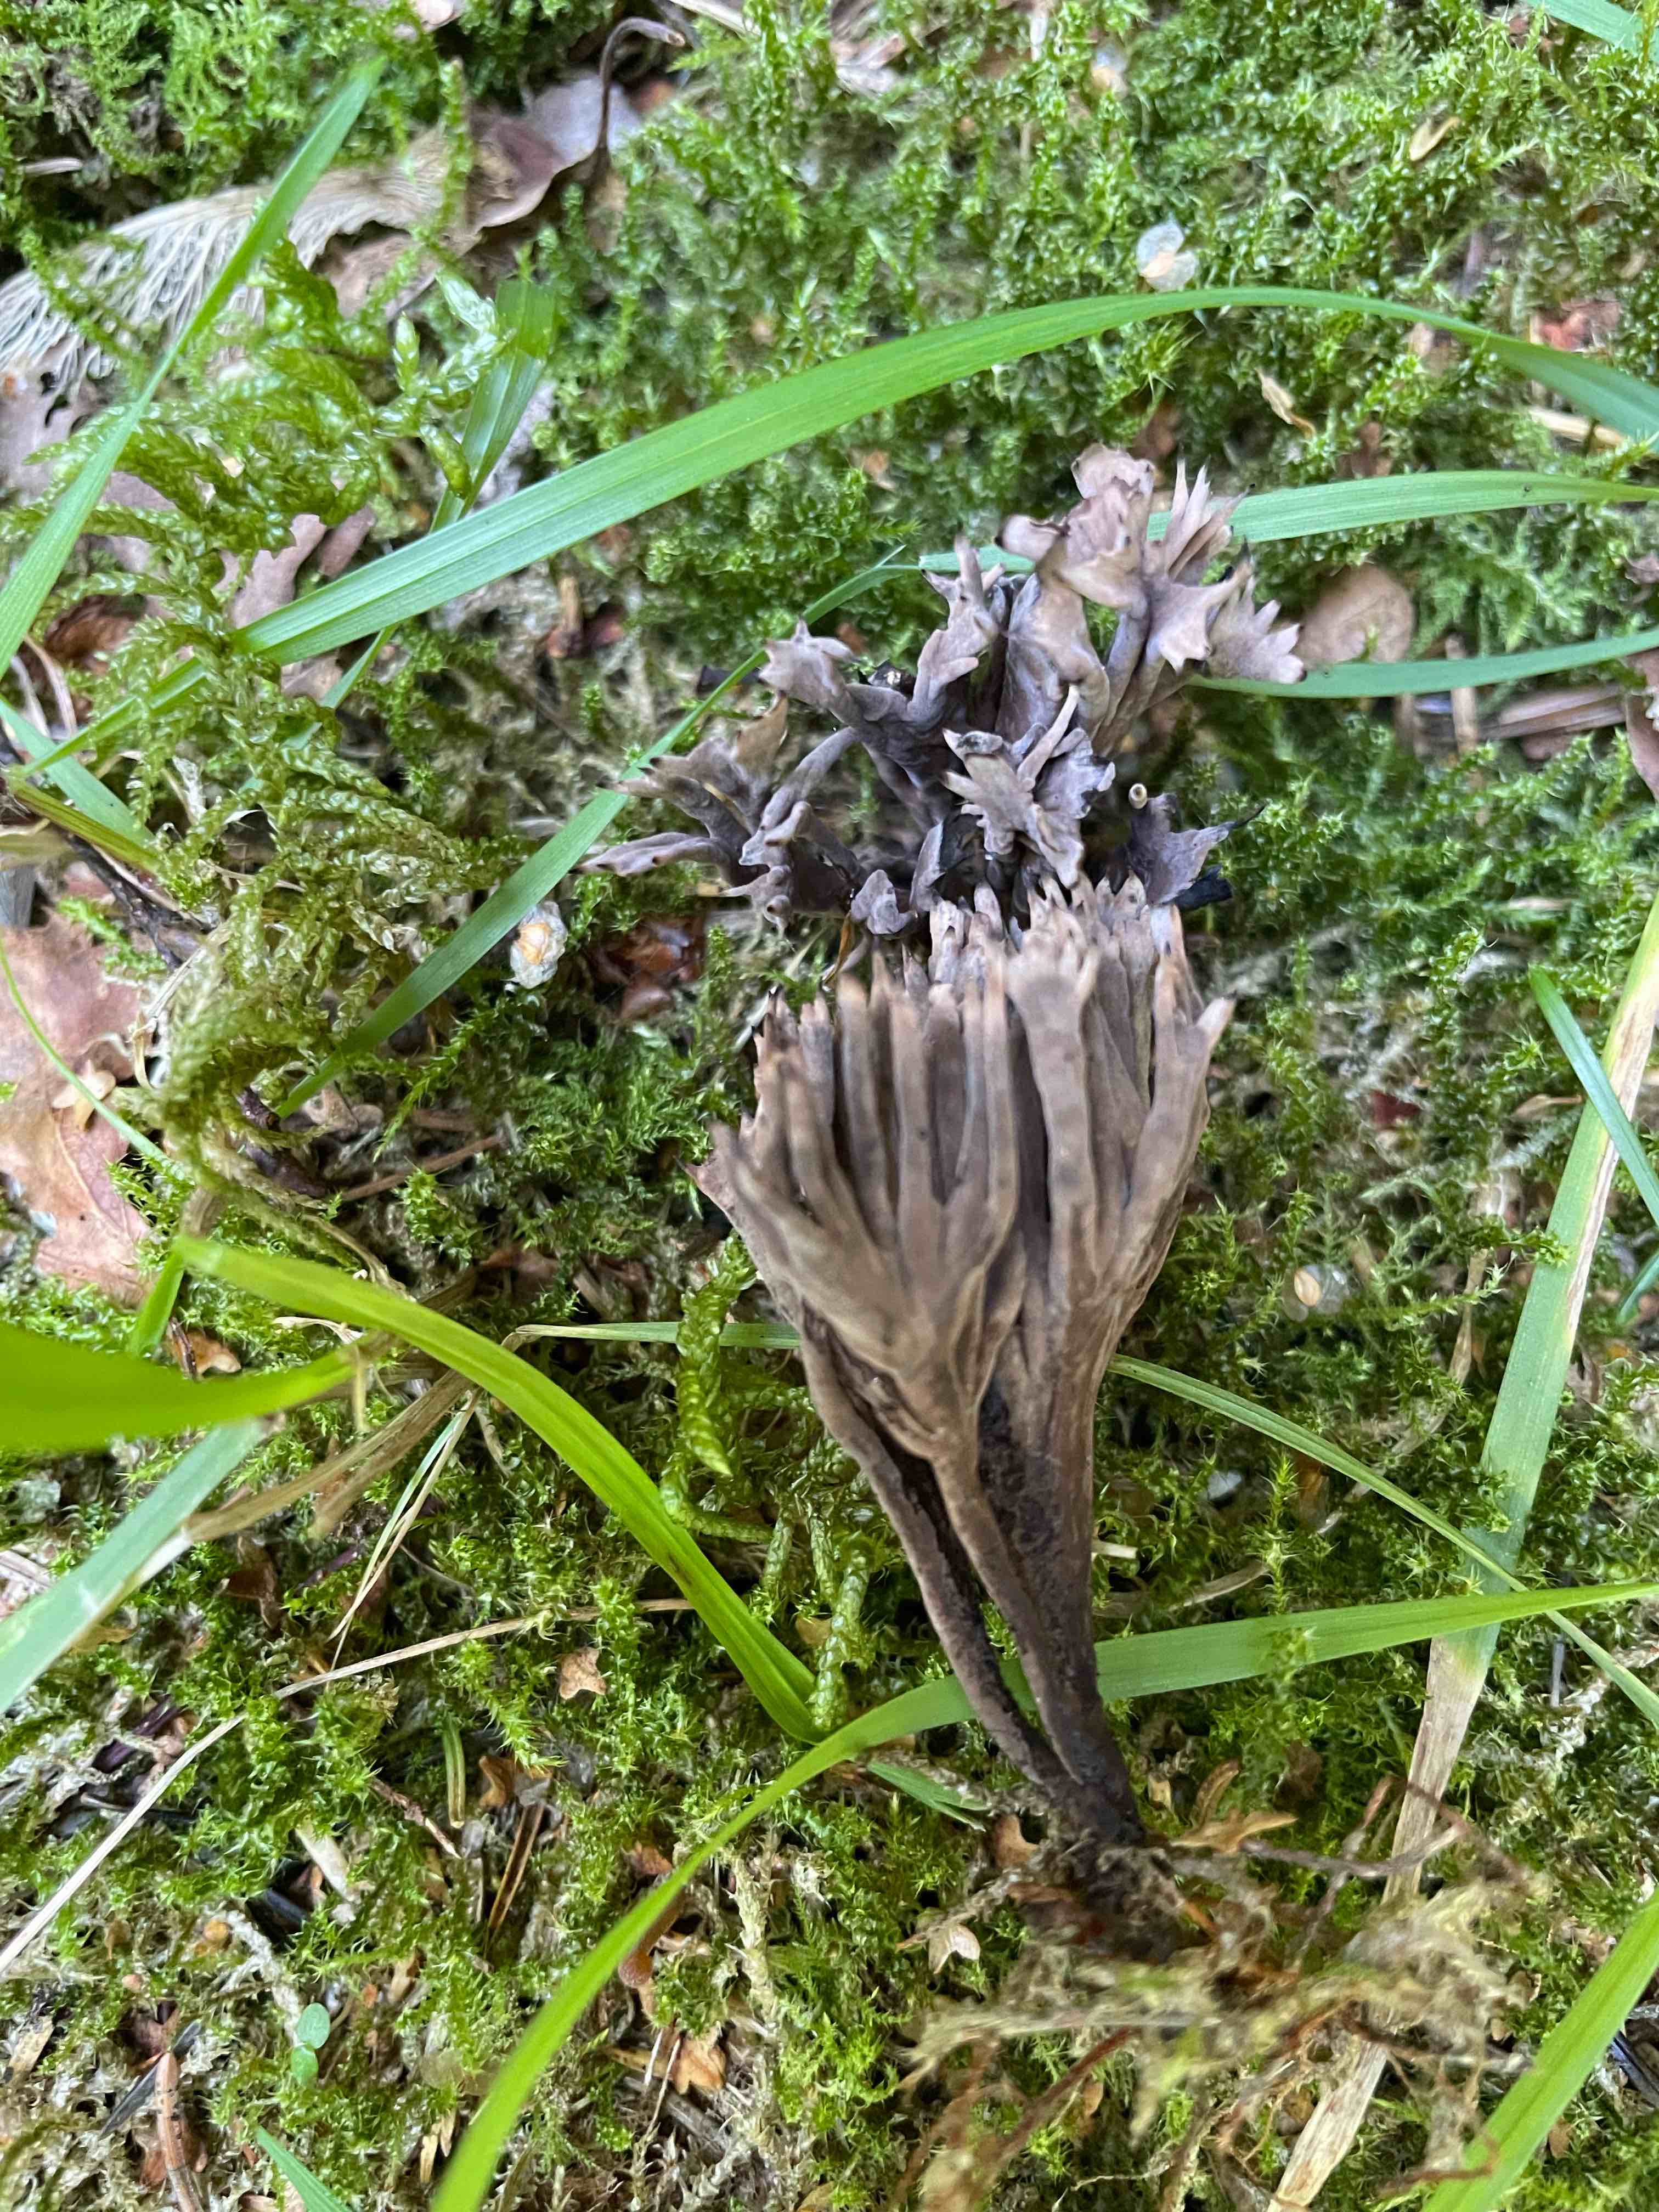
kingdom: Fungi
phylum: Basidiomycota
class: Agaricomycetes
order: Thelephorales
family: Thelephoraceae
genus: Thelephora
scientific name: Thelephora palmata
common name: grenet frynsesvamp
